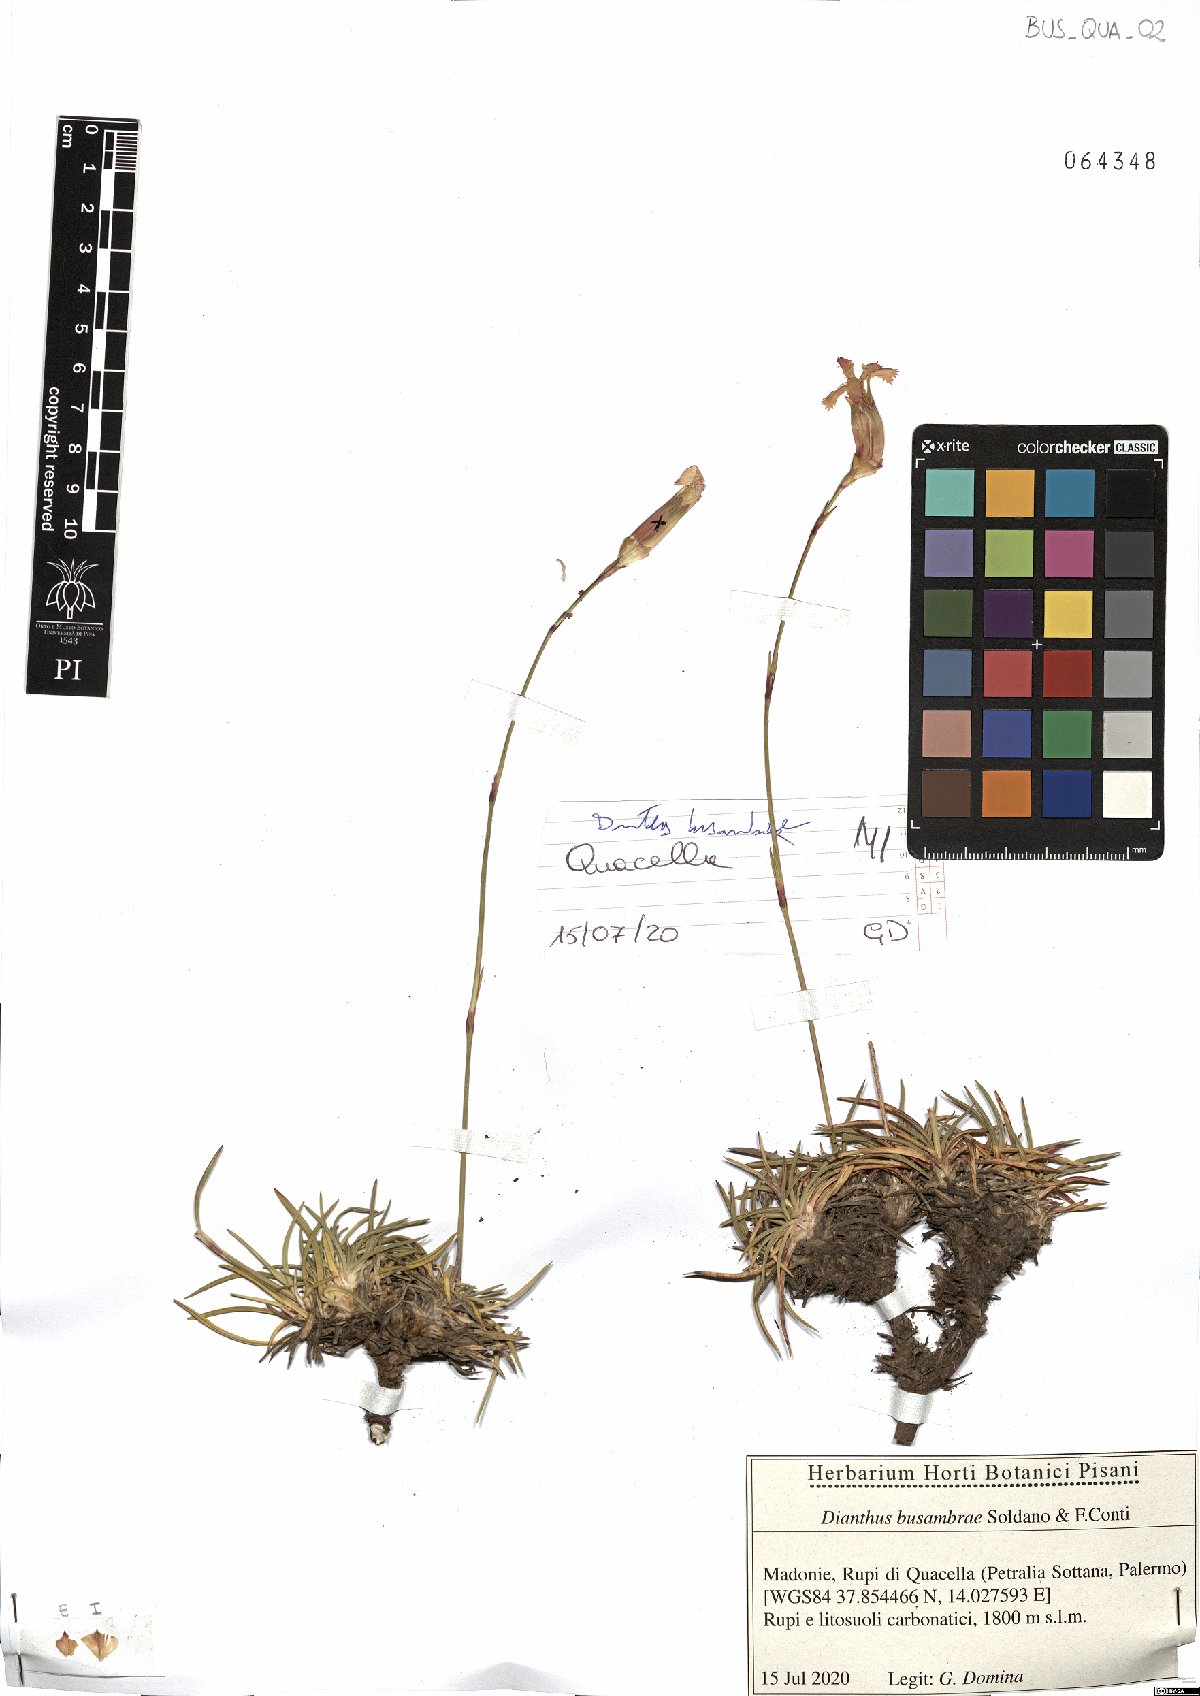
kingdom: Plantae
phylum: Tracheophyta
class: Magnoliopsida
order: Caryophyllales
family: Caryophyllaceae
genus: Dianthus
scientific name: Dianthus busambrae
